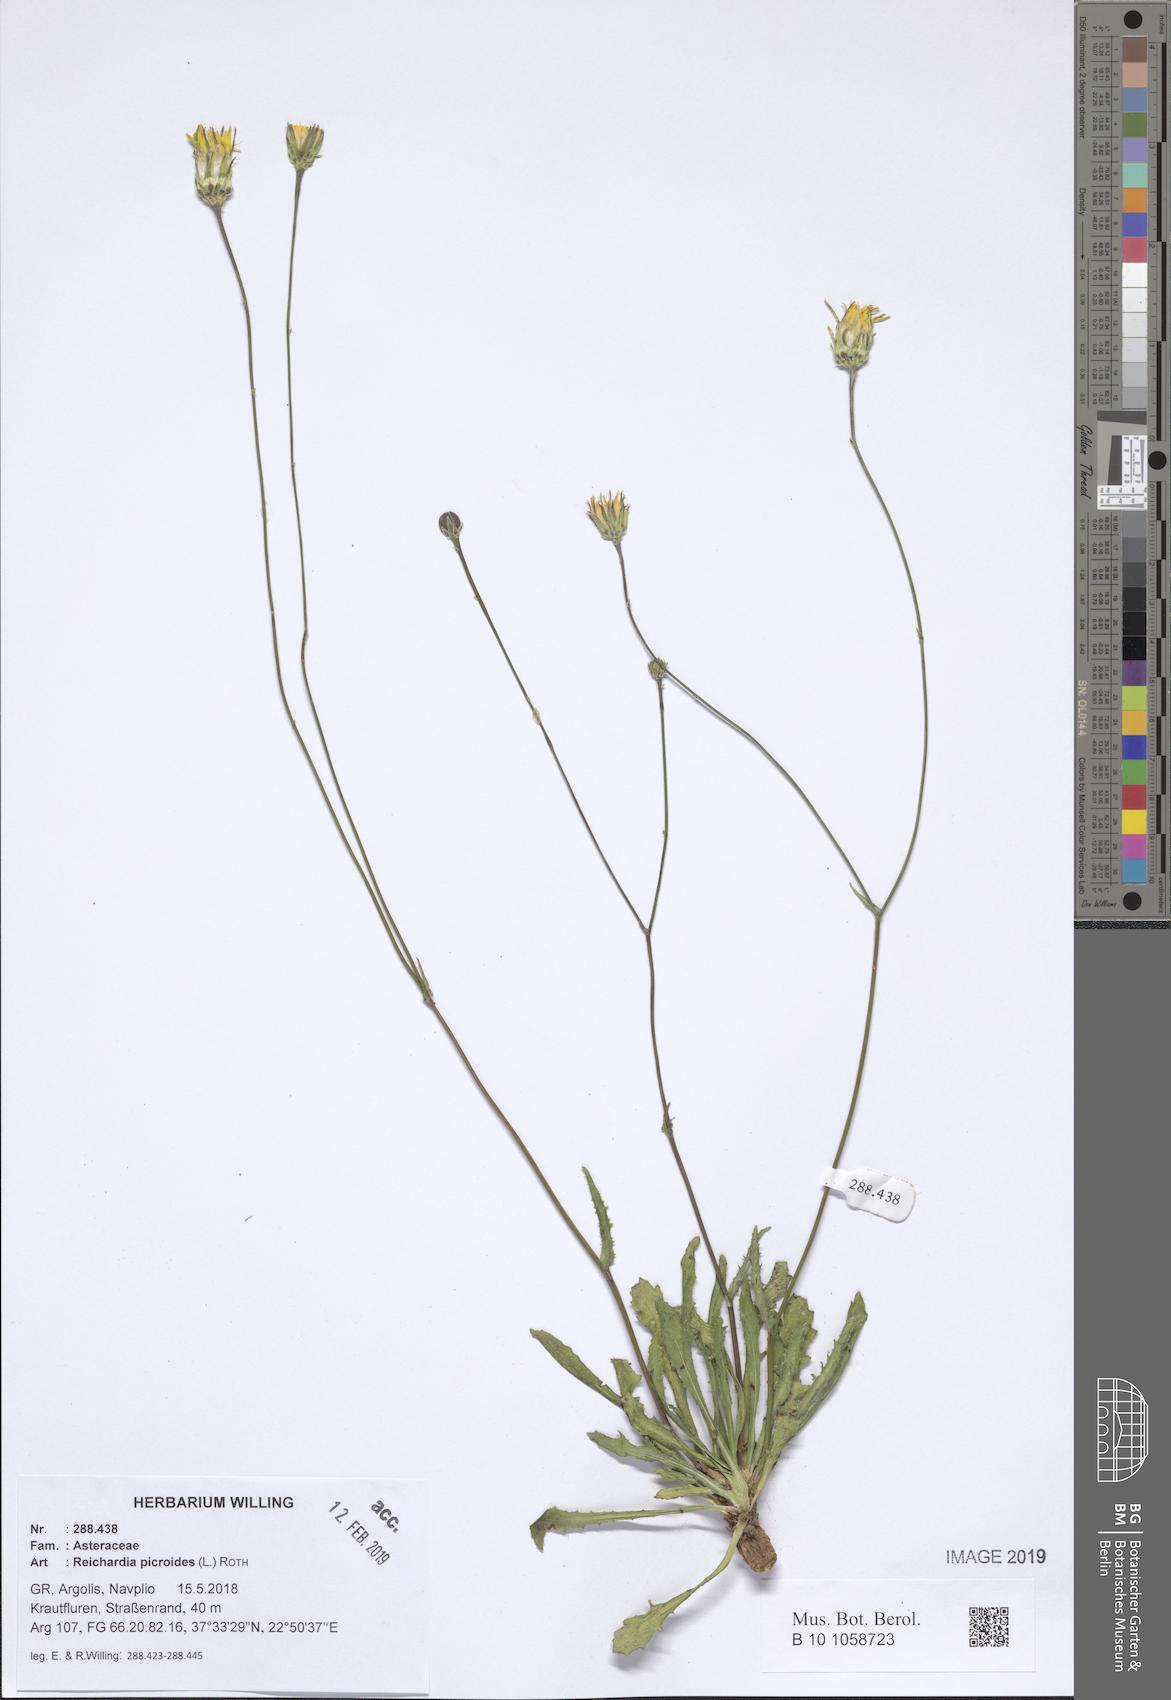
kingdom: Plantae
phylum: Tracheophyta
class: Magnoliopsida
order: Asterales
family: Asteraceae
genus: Reichardia
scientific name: Reichardia picroides
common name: Common brighteyes
